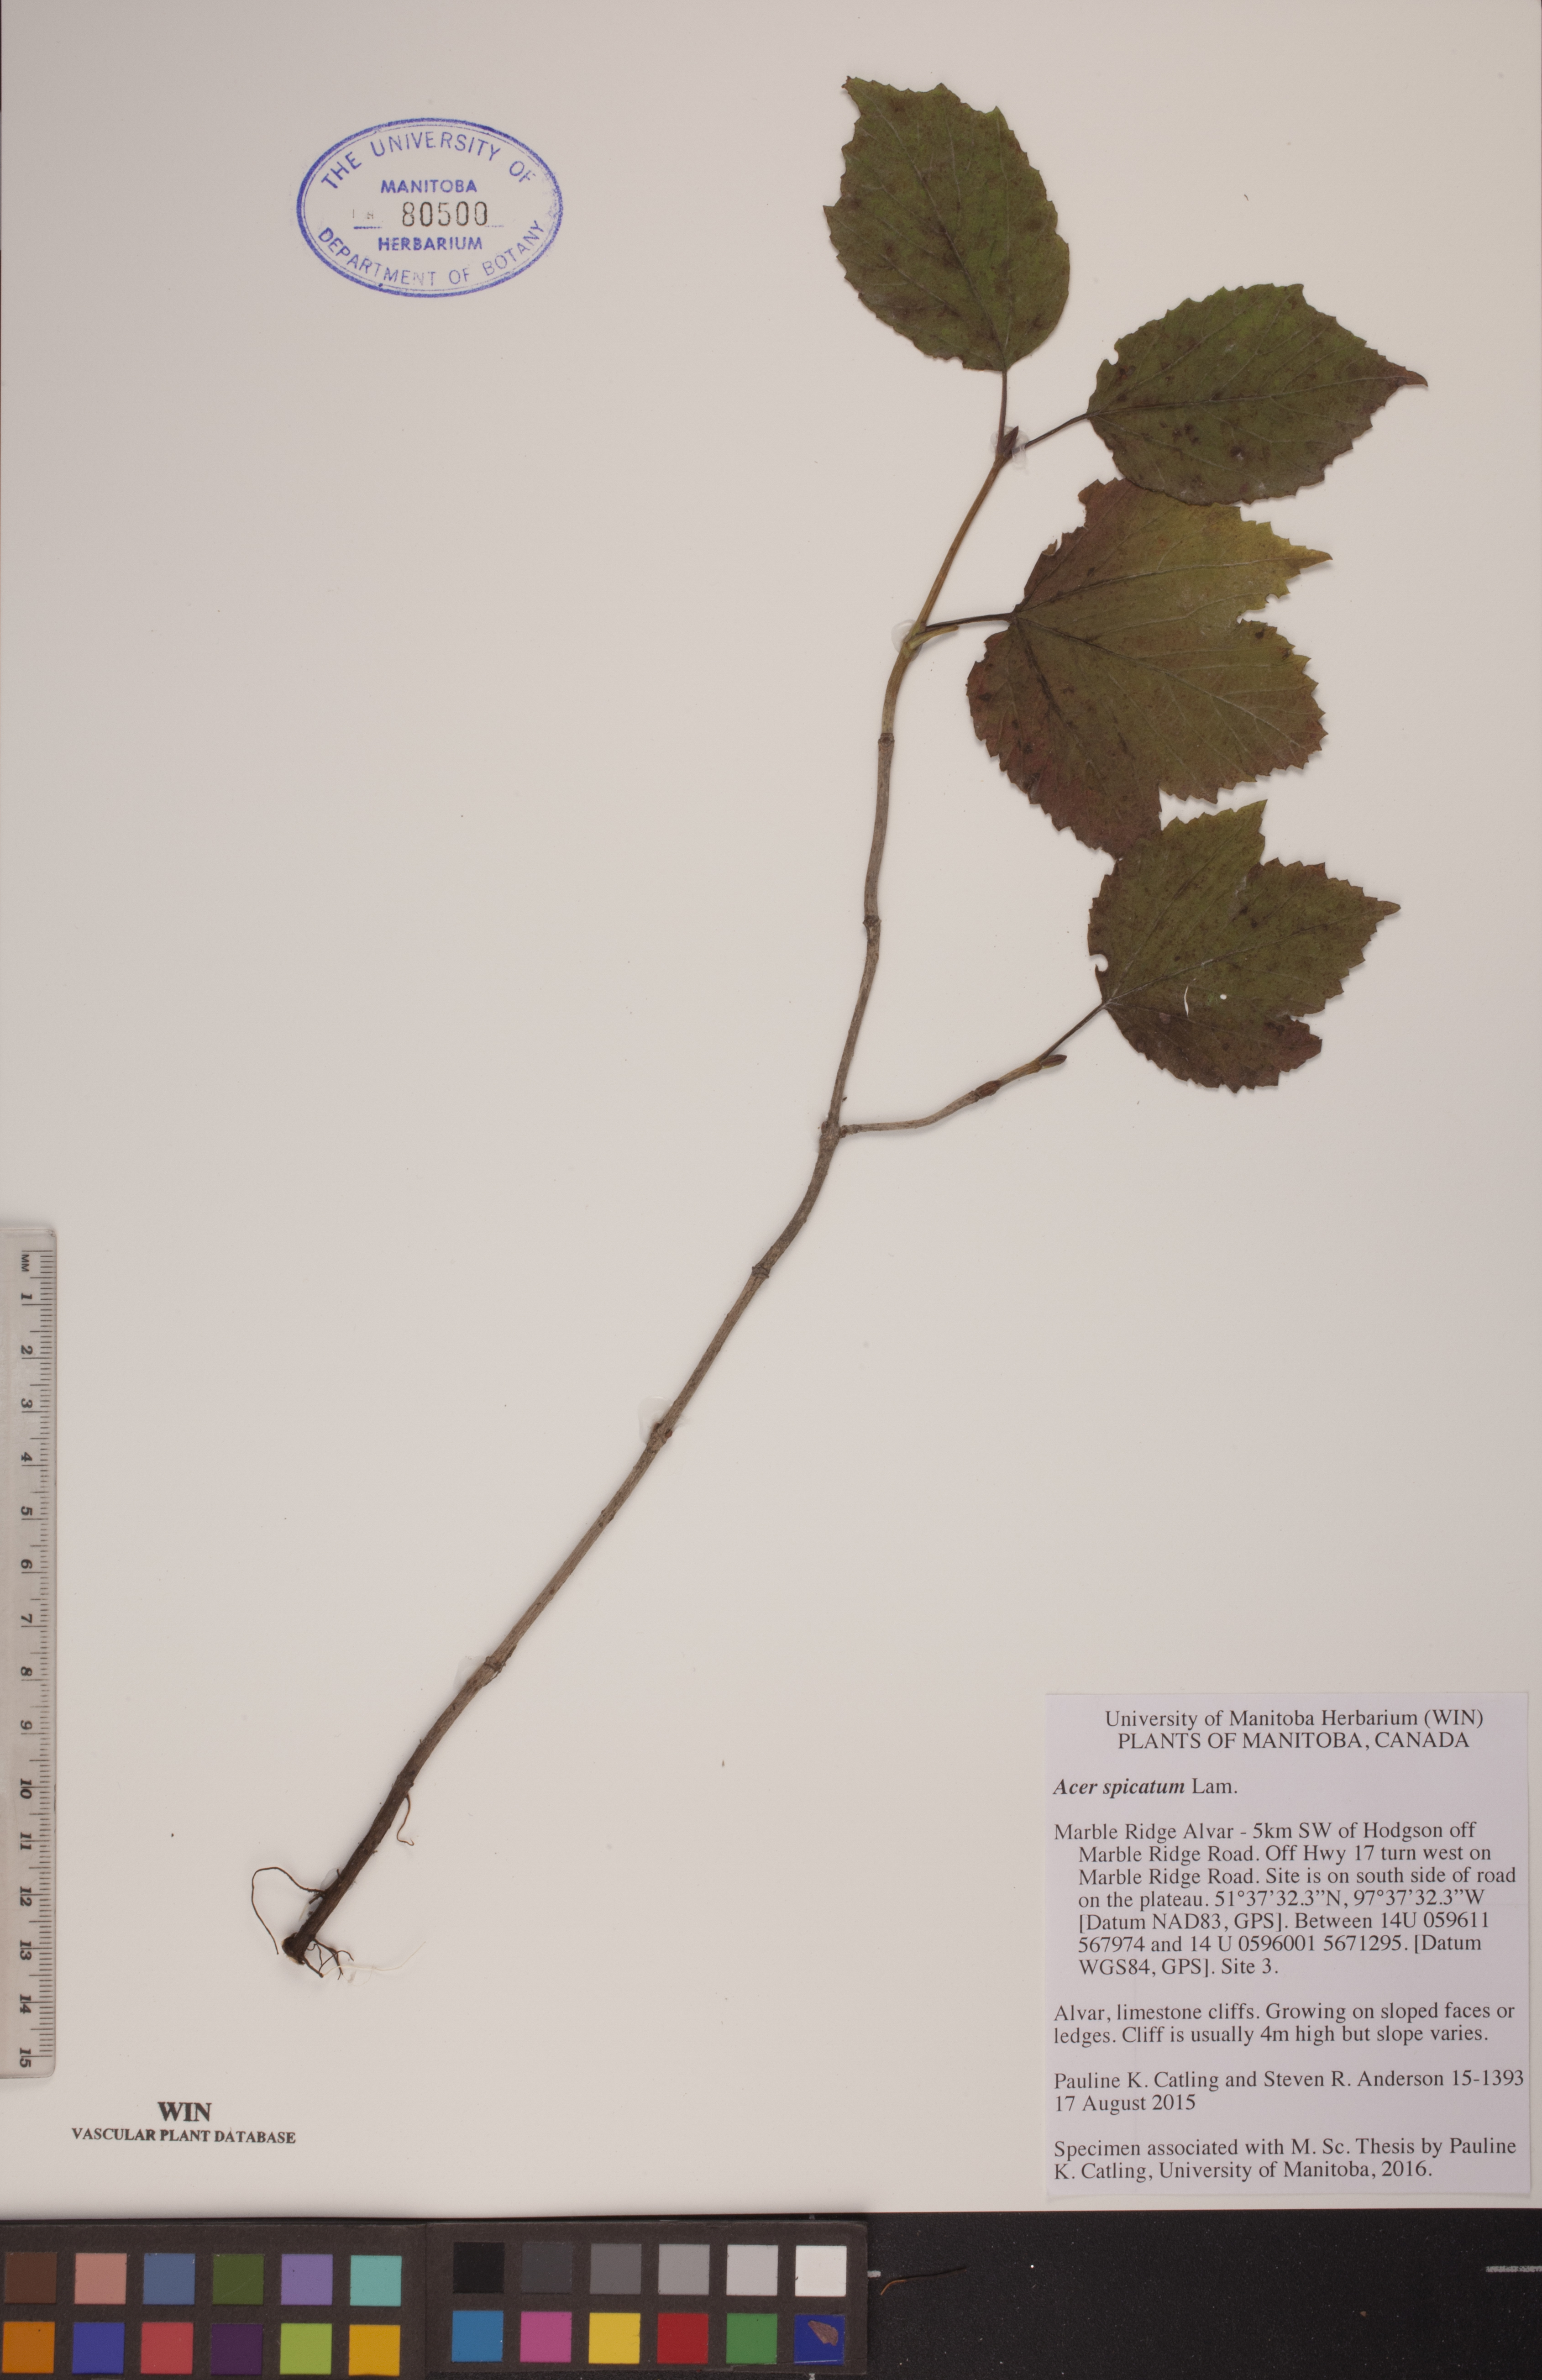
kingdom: Plantae
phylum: Tracheophyta
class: Magnoliopsida
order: Sapindales
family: Sapindaceae
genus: Acer
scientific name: Acer spicatum
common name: Mountain maple
